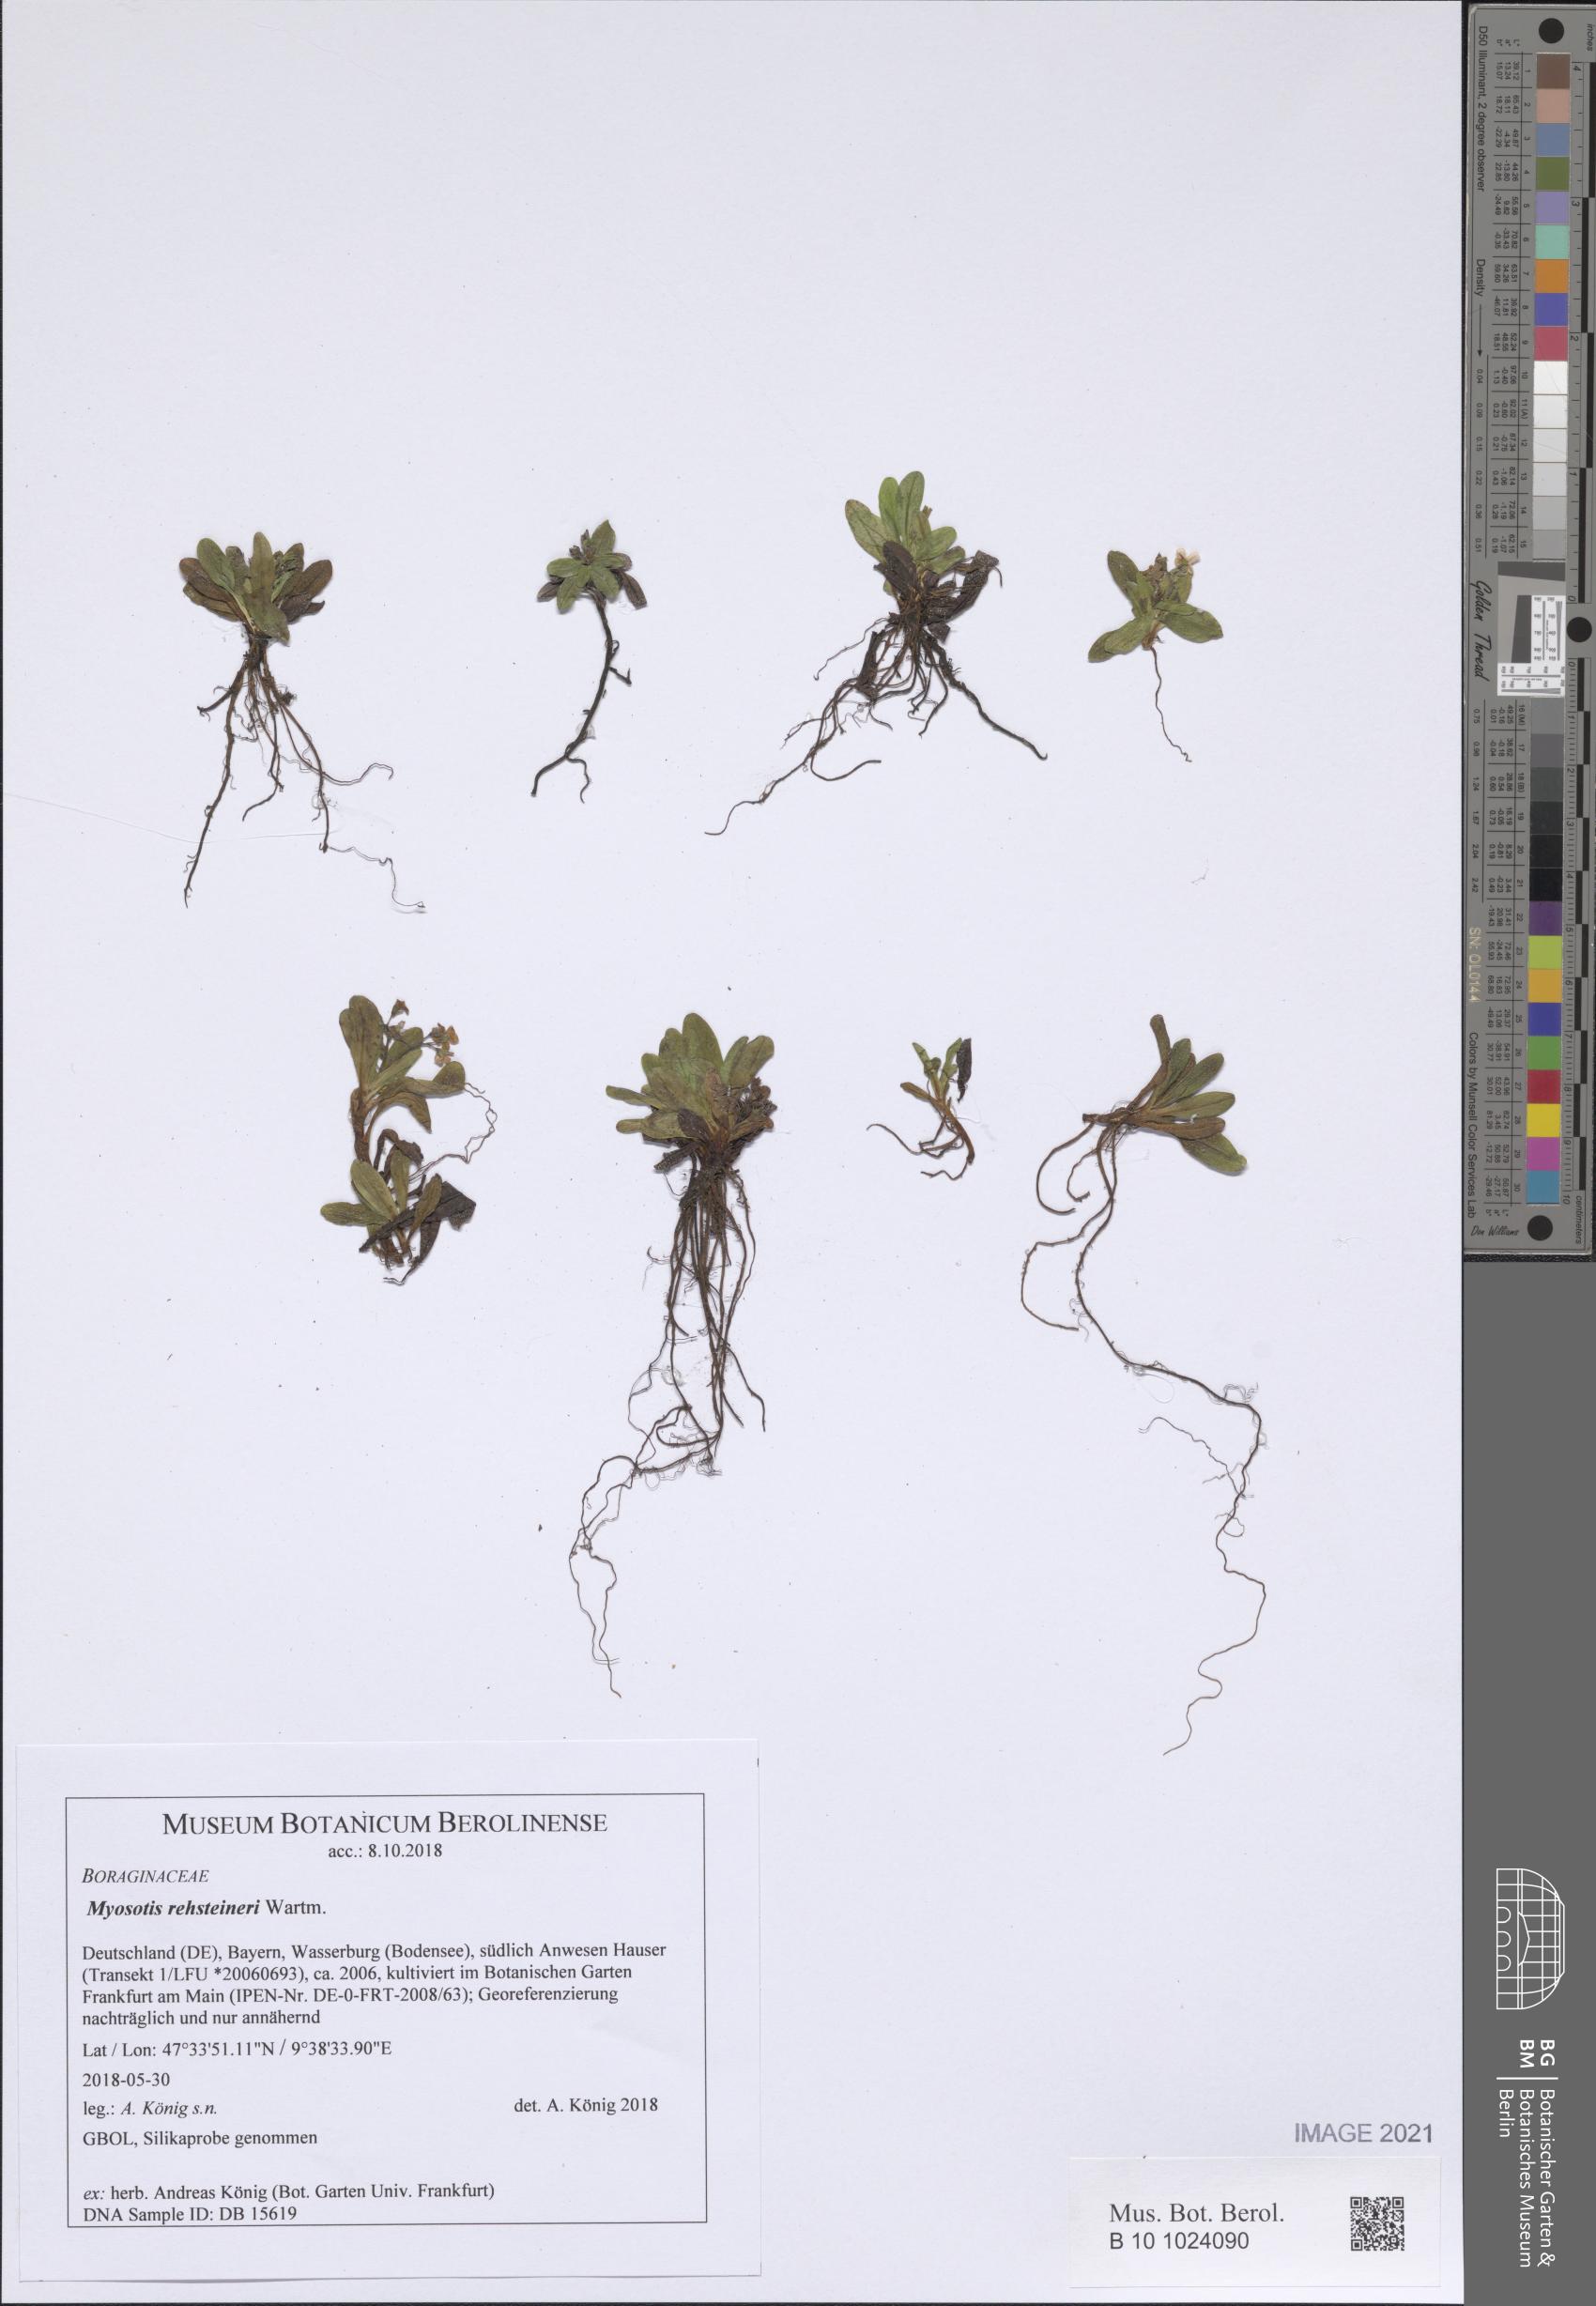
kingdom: Plantae
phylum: Tracheophyta
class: Magnoliopsida
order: Boraginales
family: Boraginaceae
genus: Myosotis
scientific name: Myosotis rehsteineri
